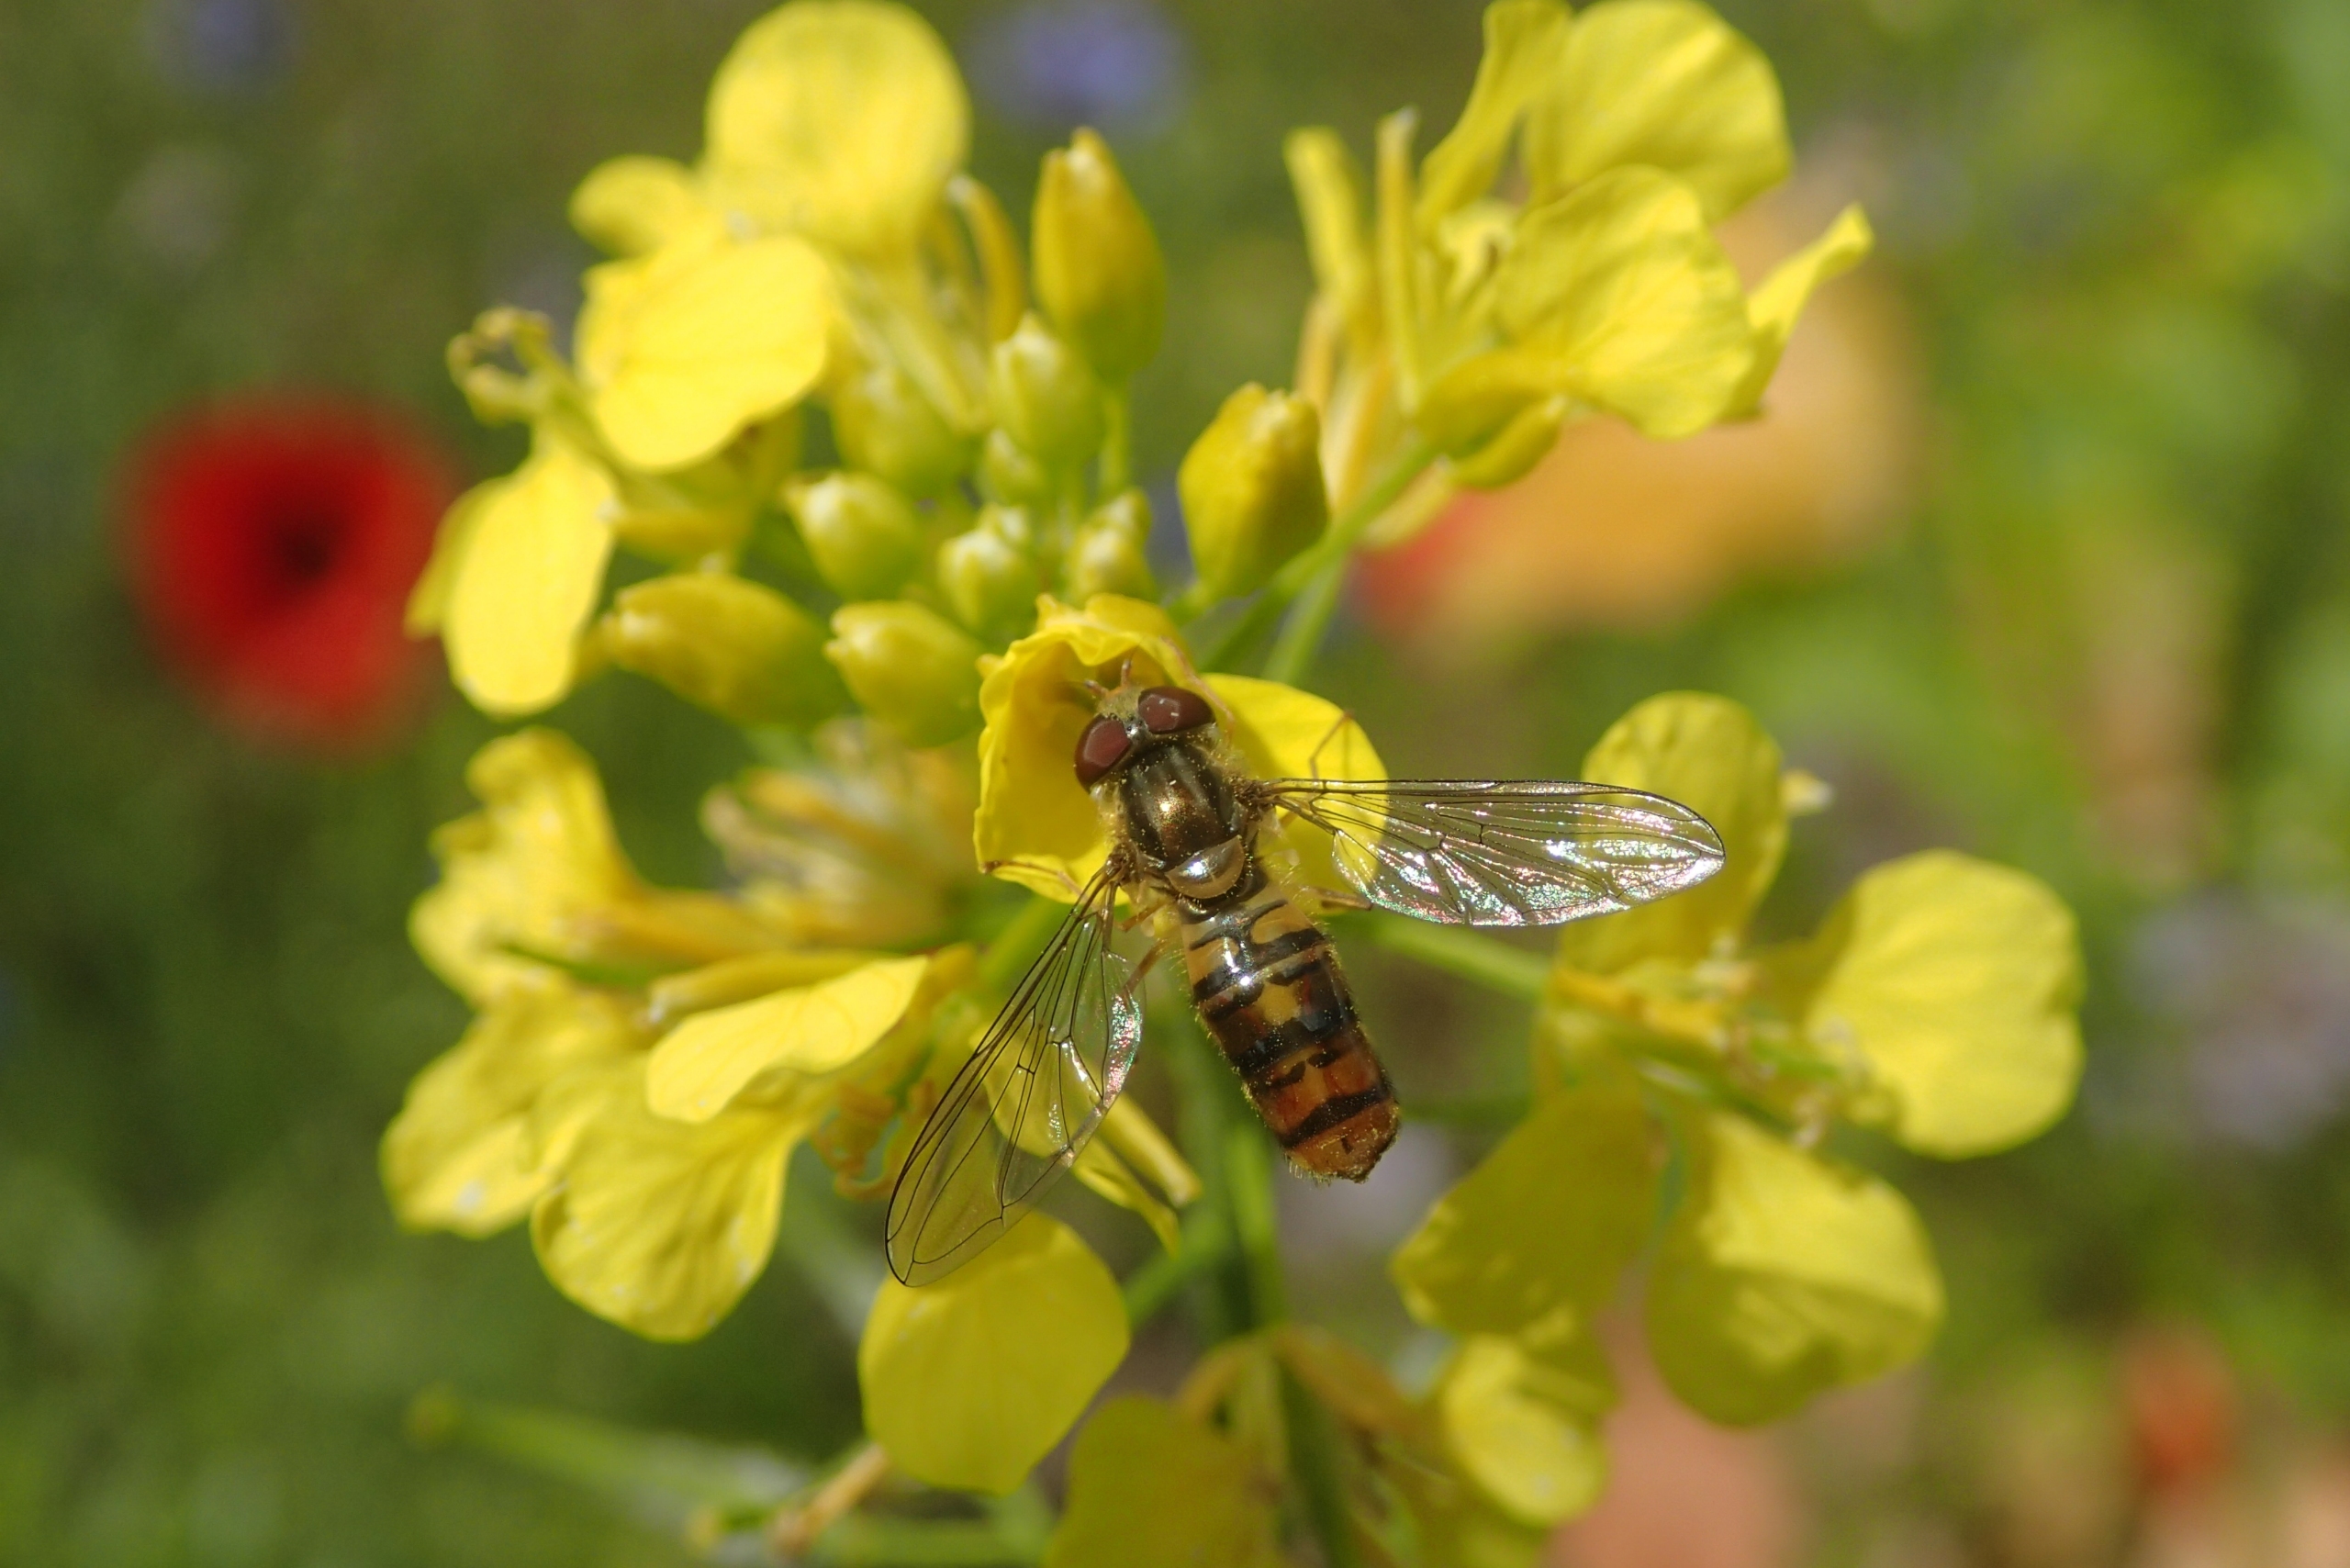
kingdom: Animalia
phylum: Arthropoda
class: Insecta
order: Diptera
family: Syrphidae
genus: Episyrphus
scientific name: Episyrphus balteatus
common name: Dobbeltbåndet svirreflue
